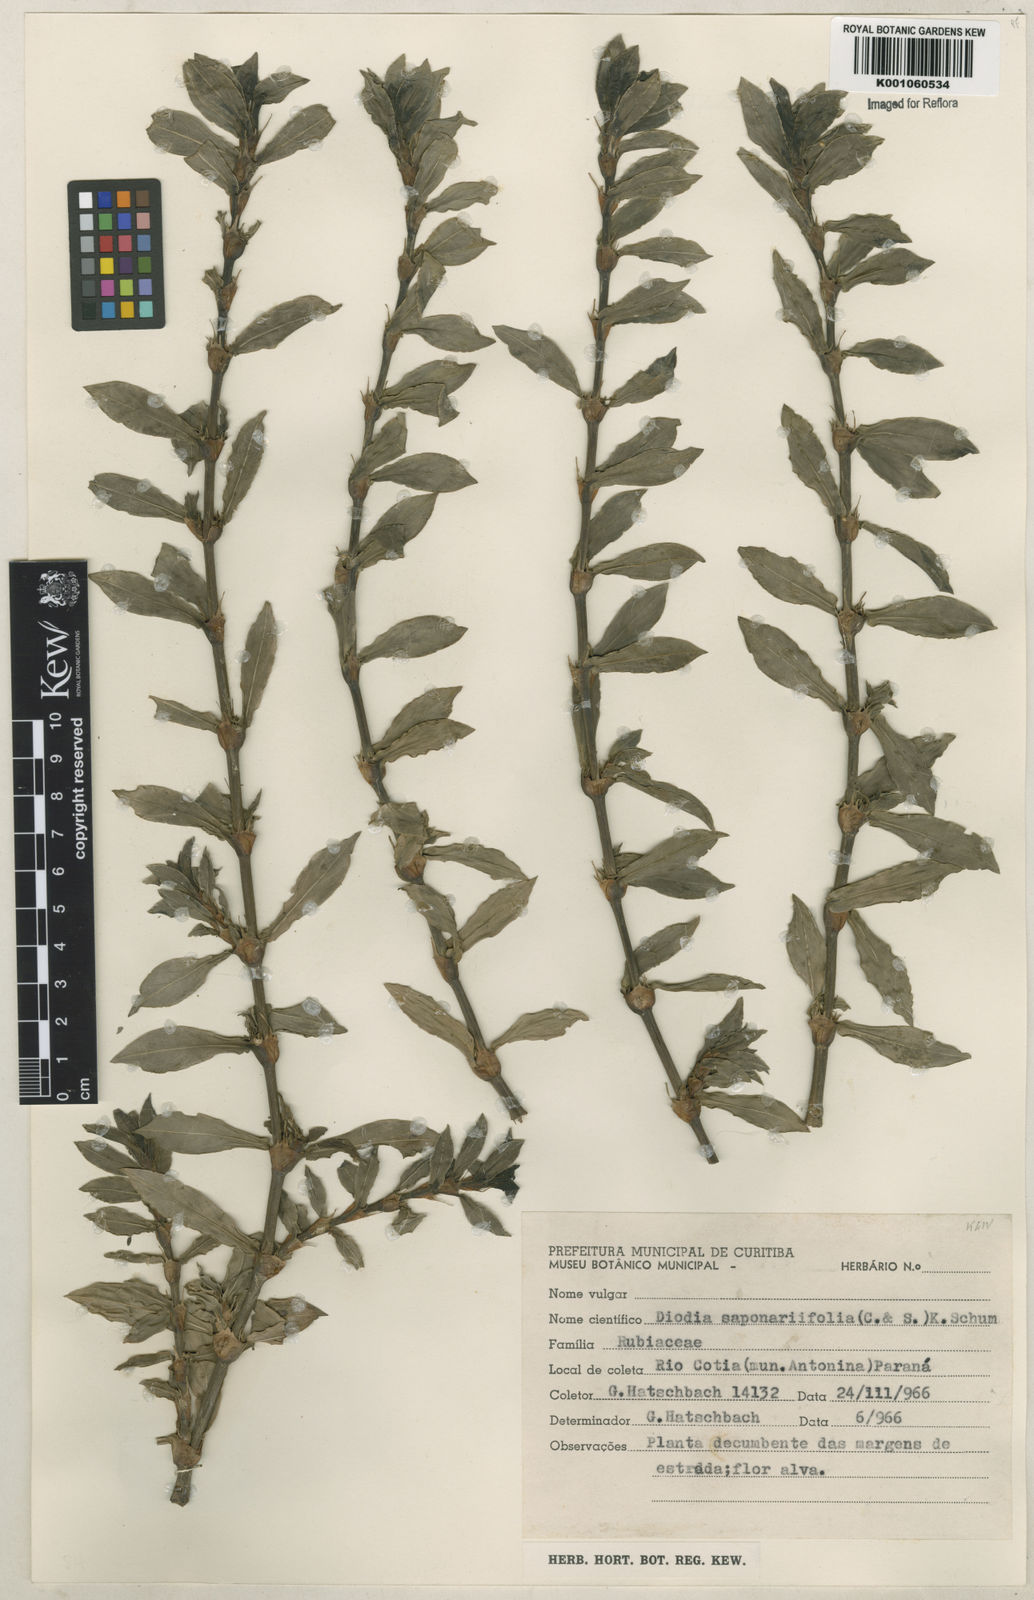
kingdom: Plantae
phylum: Tracheophyta
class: Magnoliopsida
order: Gentianales
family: Rubiaceae
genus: Diodia
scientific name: Diodia saponariifolia
